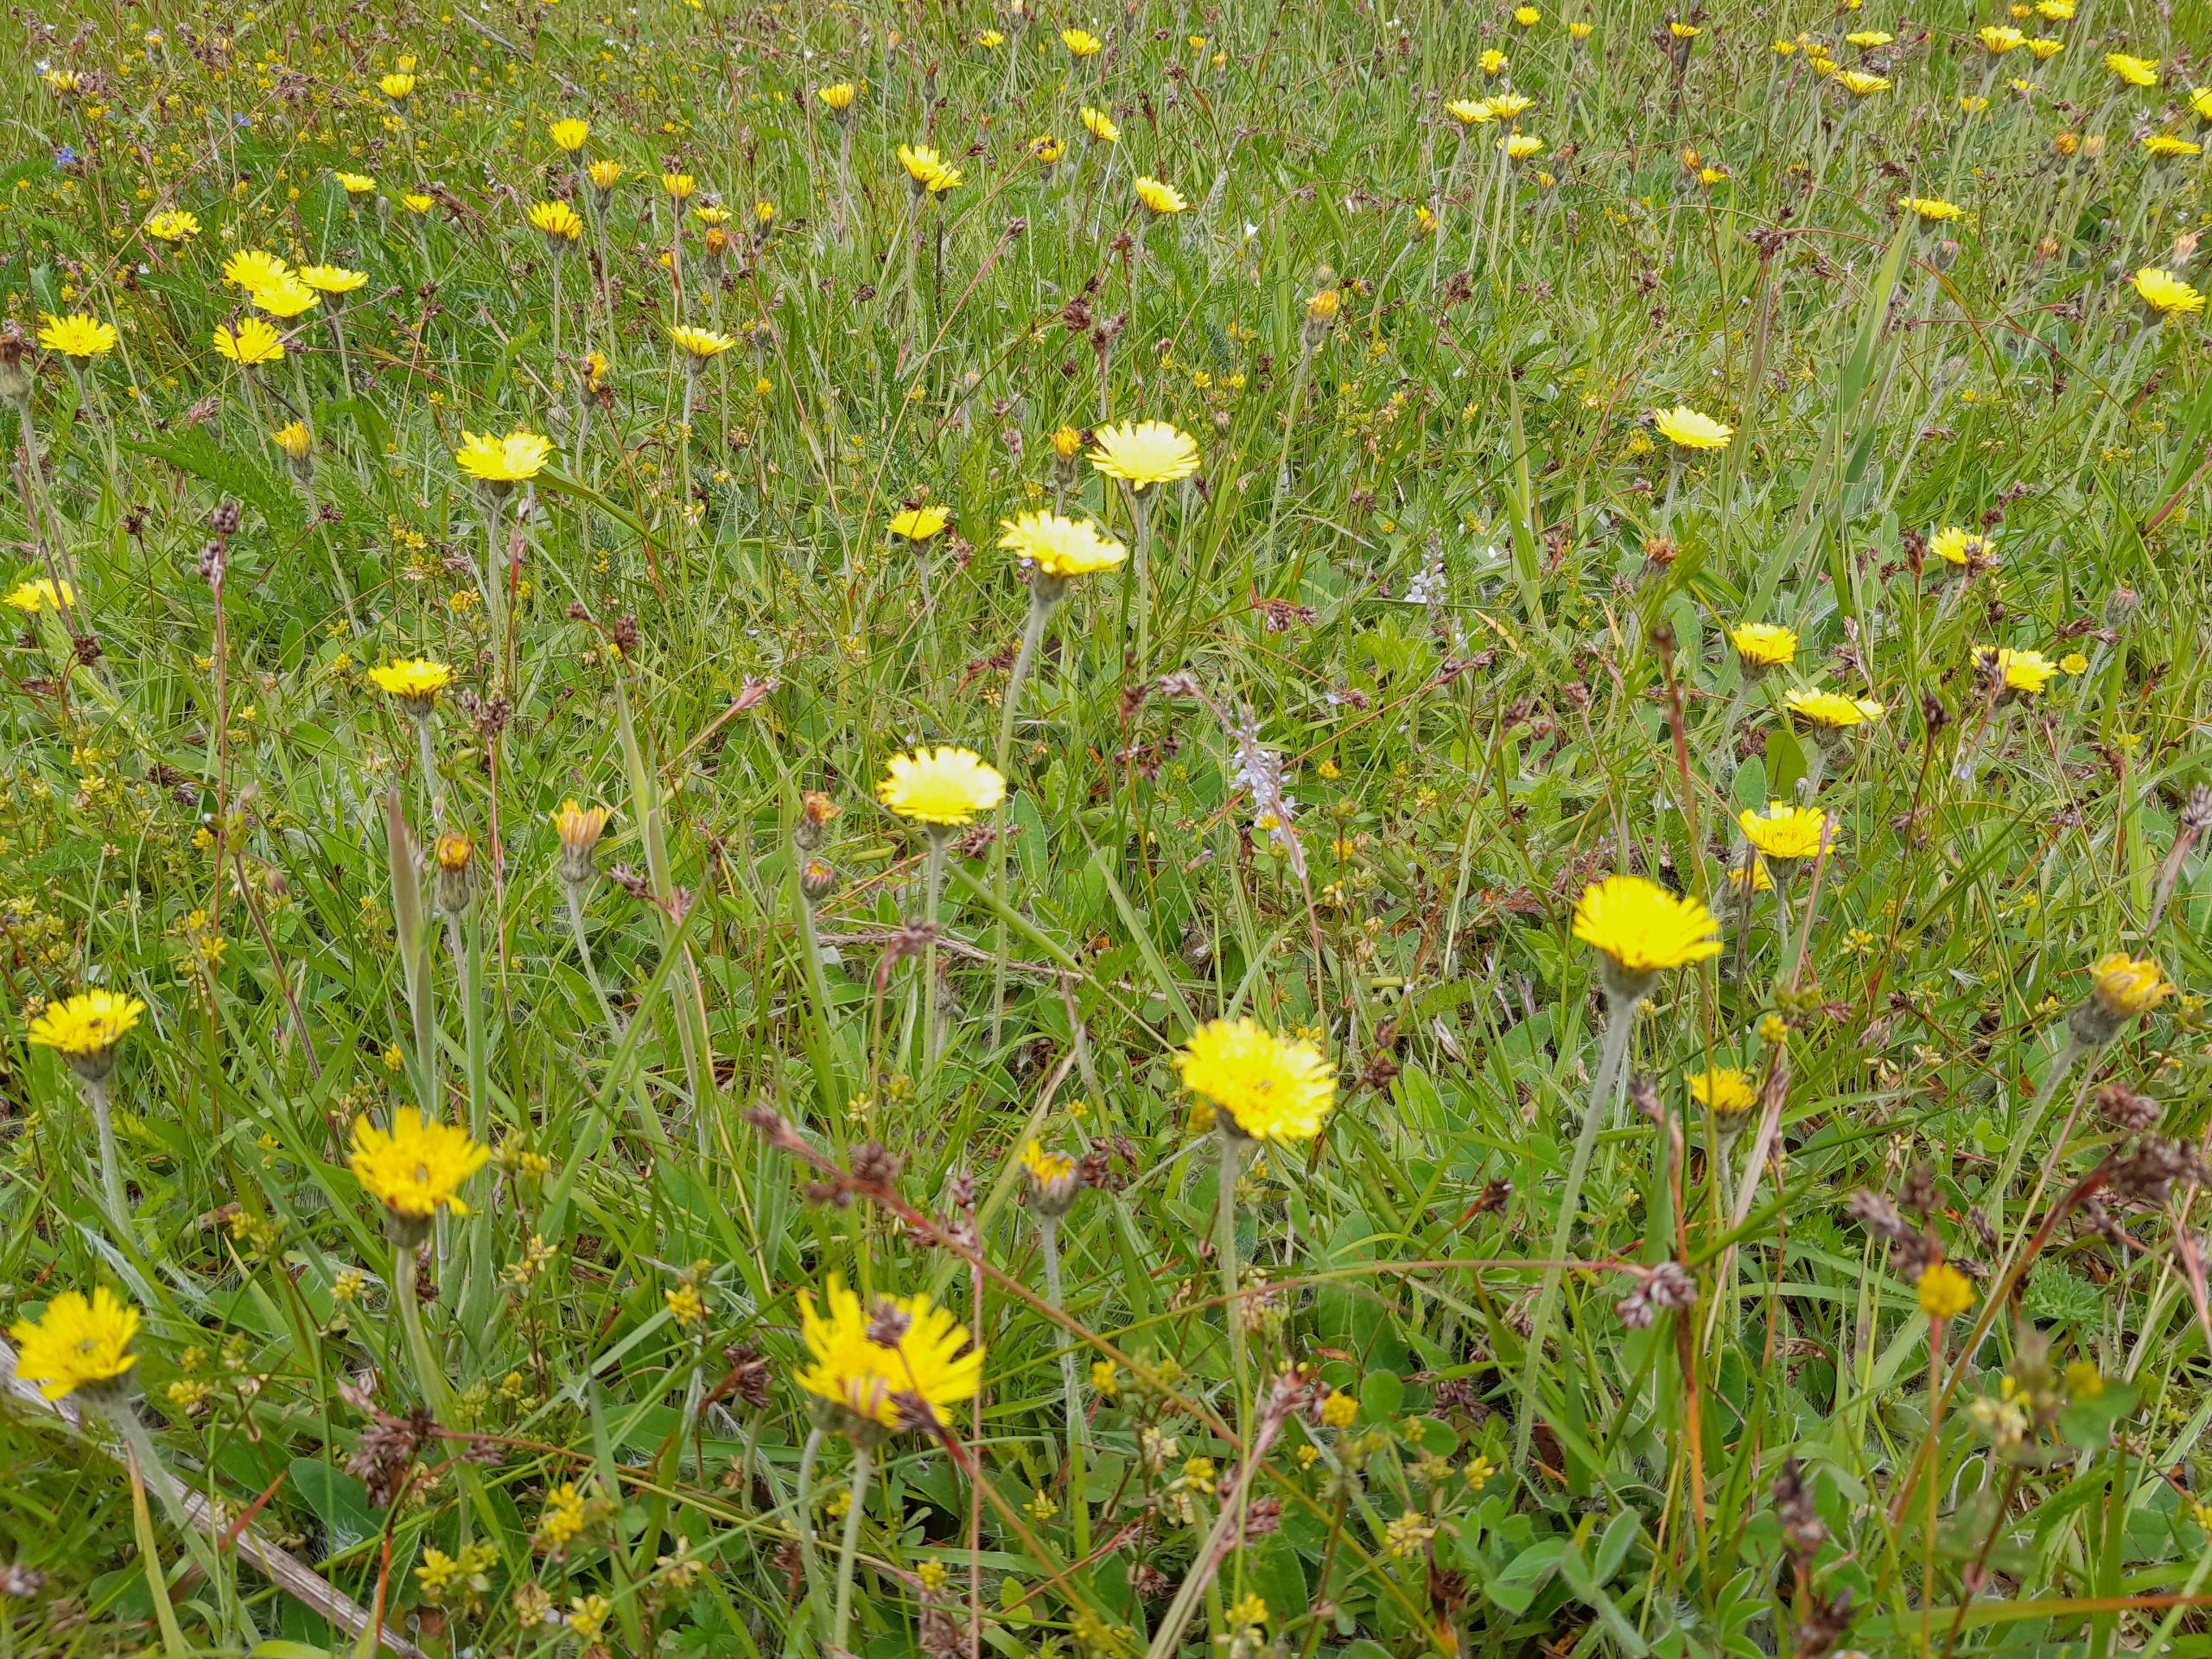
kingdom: Plantae
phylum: Tracheophyta
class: Magnoliopsida
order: Lamiales
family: Plantaginaceae
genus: Veronica
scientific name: Veronica officinalis
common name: Læge-ærenpris
